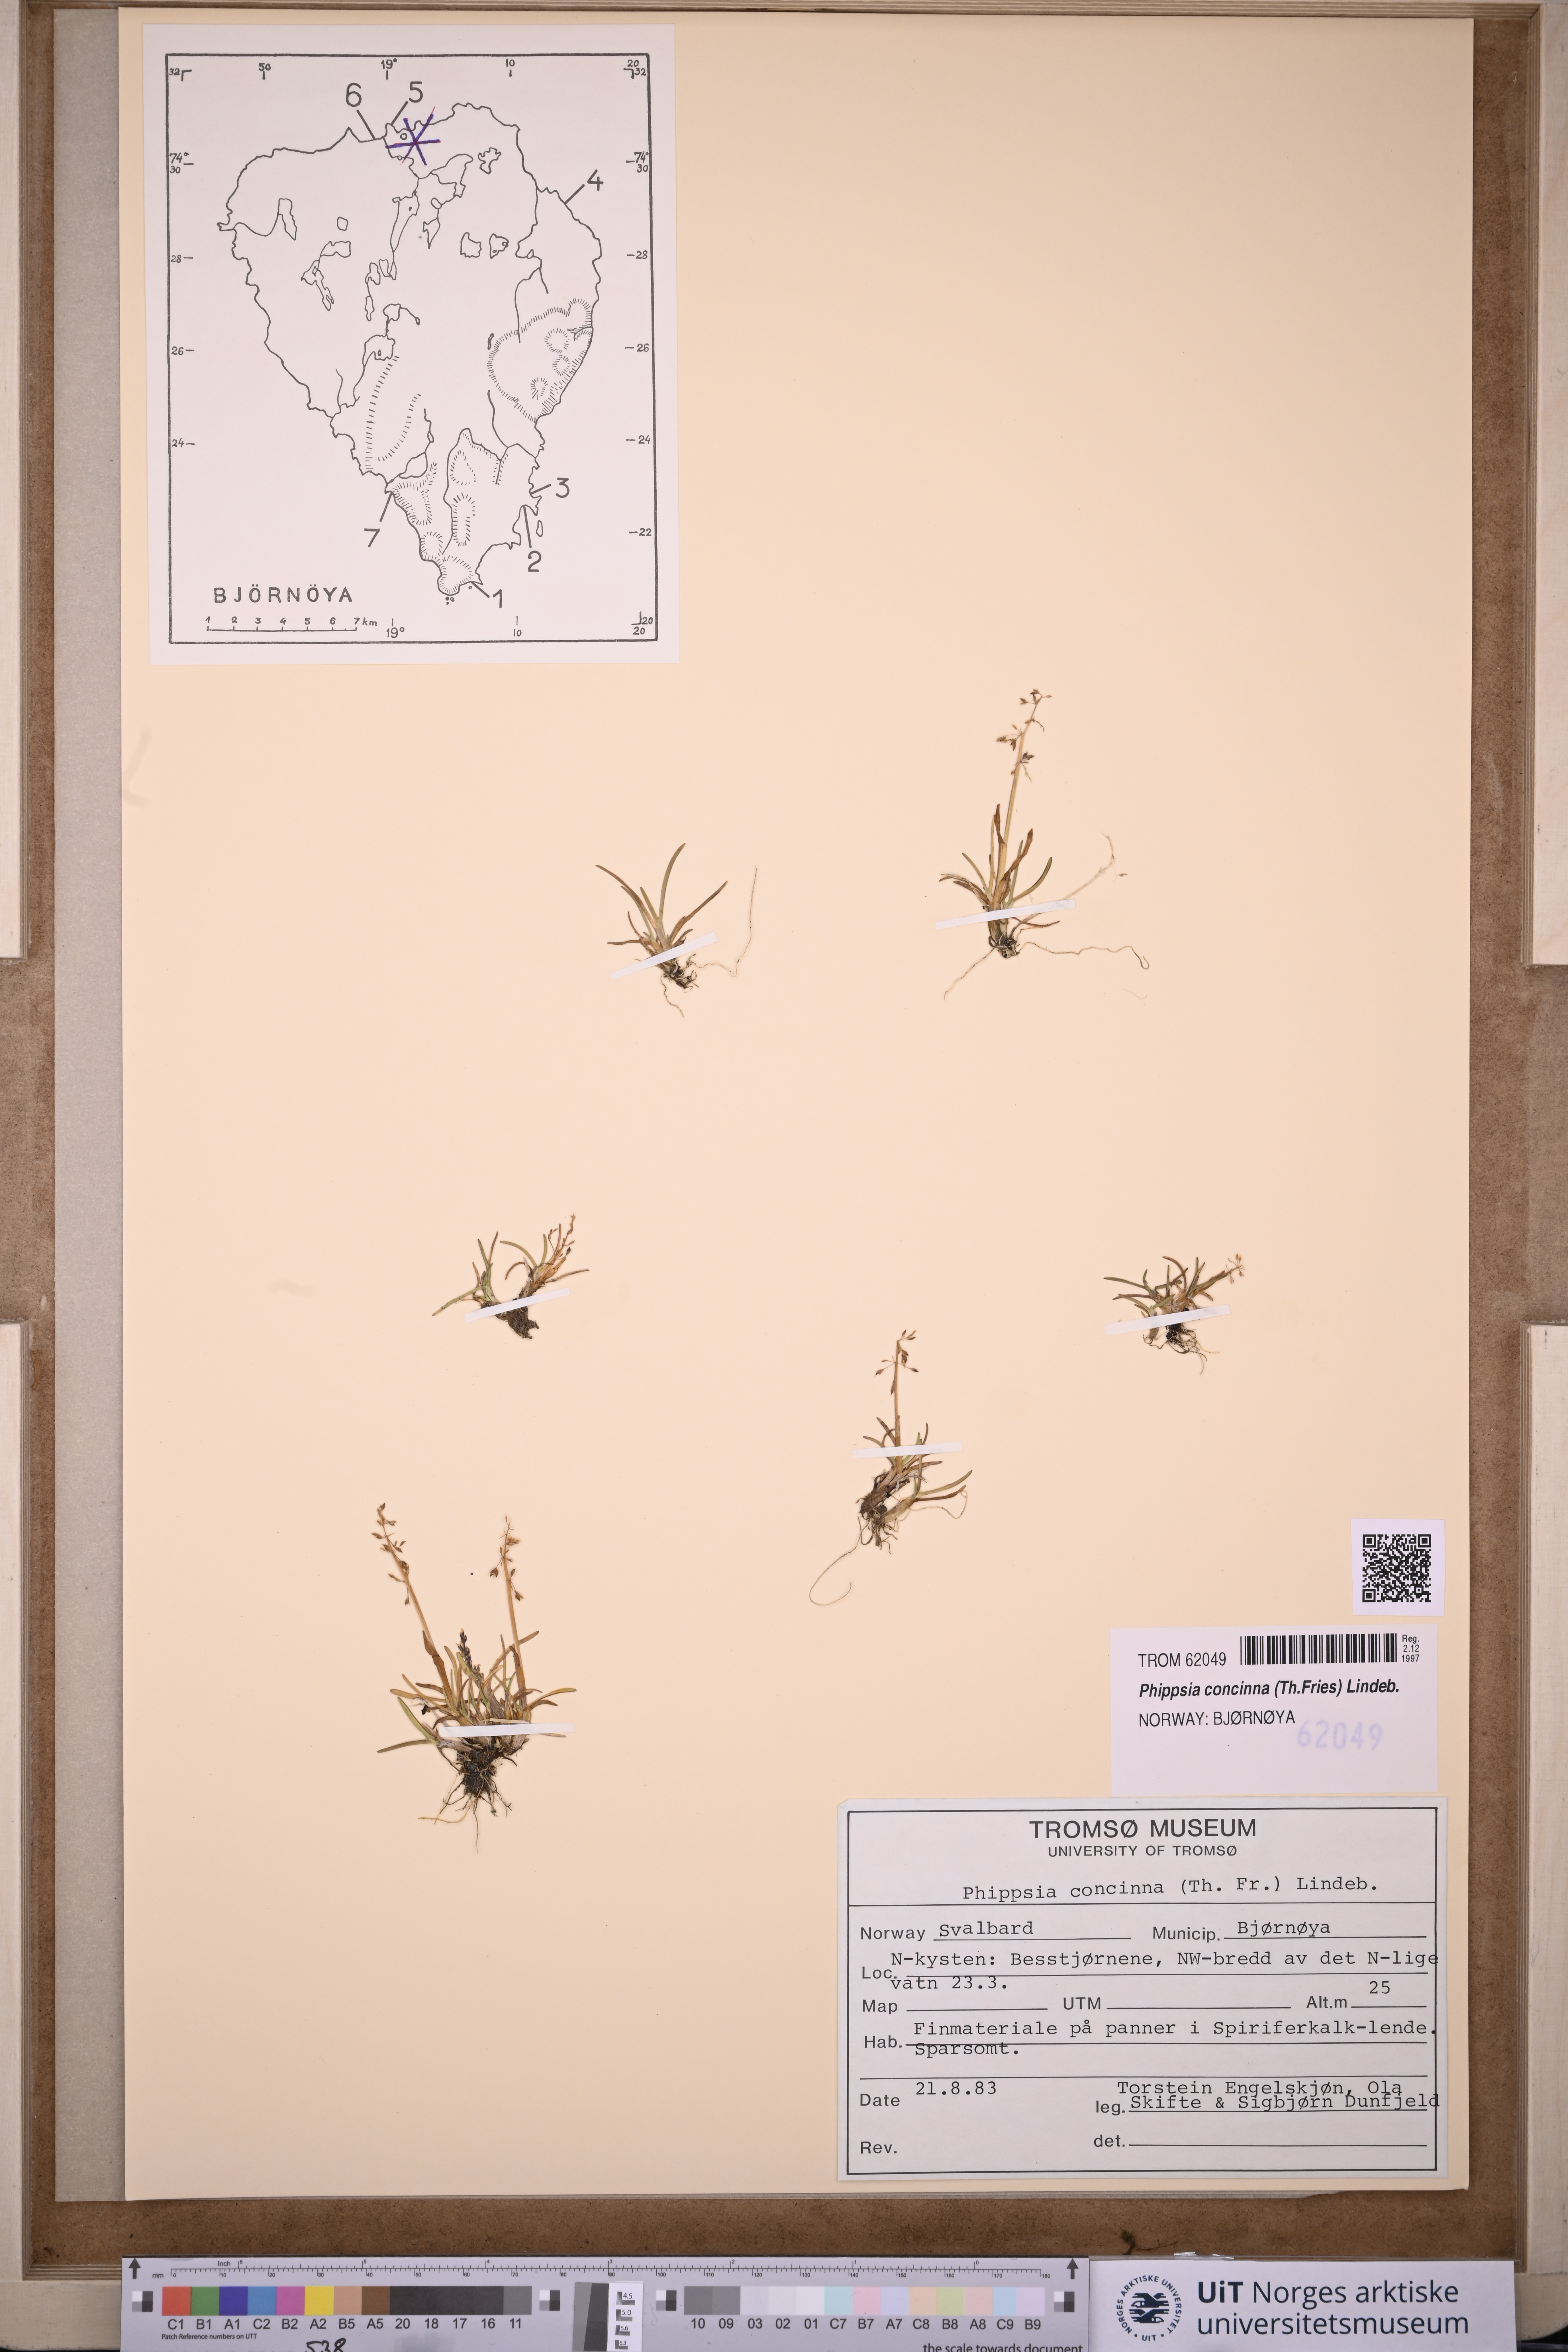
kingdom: Plantae
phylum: Tracheophyta
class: Liliopsida
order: Poales
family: Poaceae
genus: Phippsia
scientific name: Phippsia concinna
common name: Snowgrass
